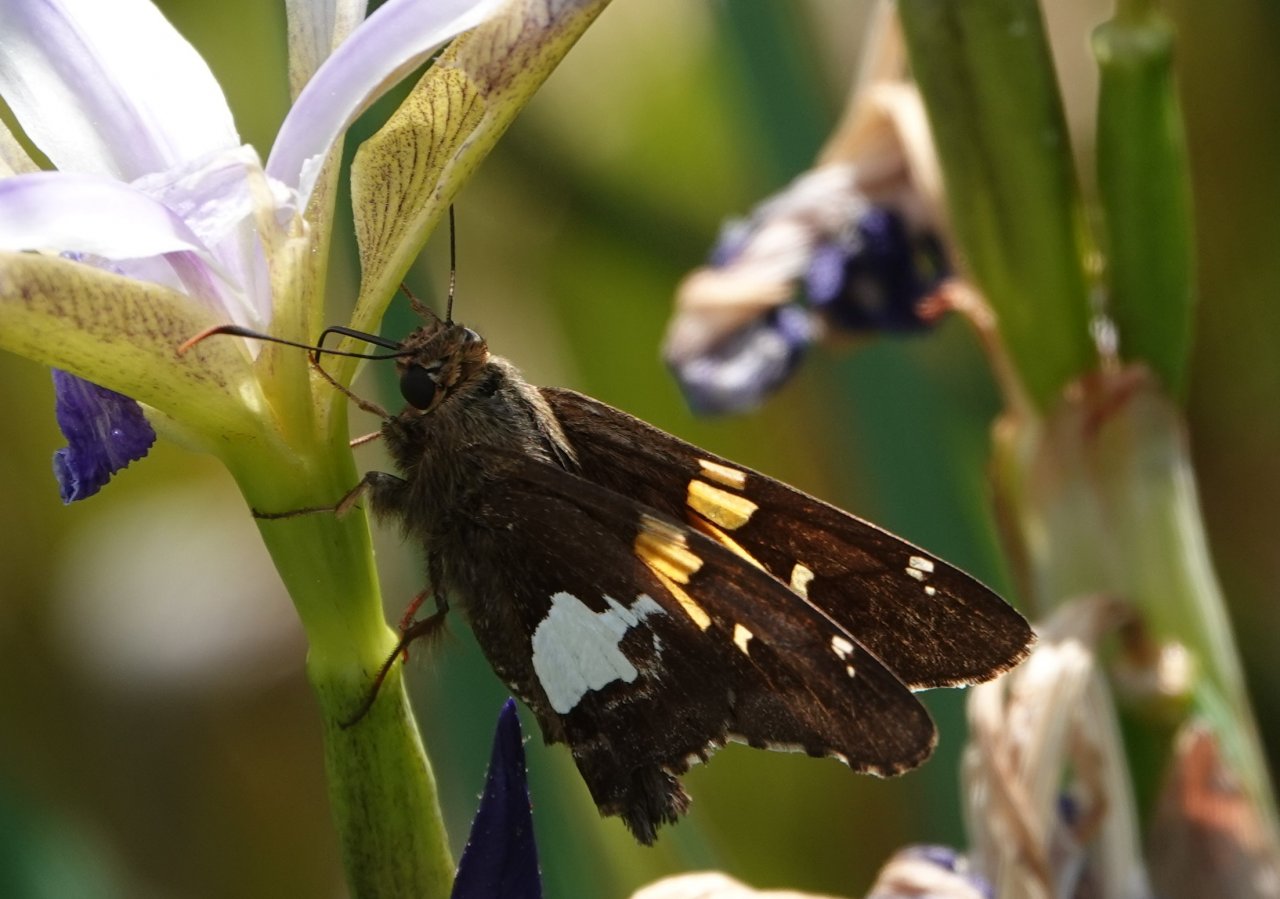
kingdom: Animalia
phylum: Arthropoda
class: Insecta
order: Lepidoptera
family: Hesperiidae
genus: Epargyreus
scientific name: Epargyreus clarus
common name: Silver-spotted Skipper
